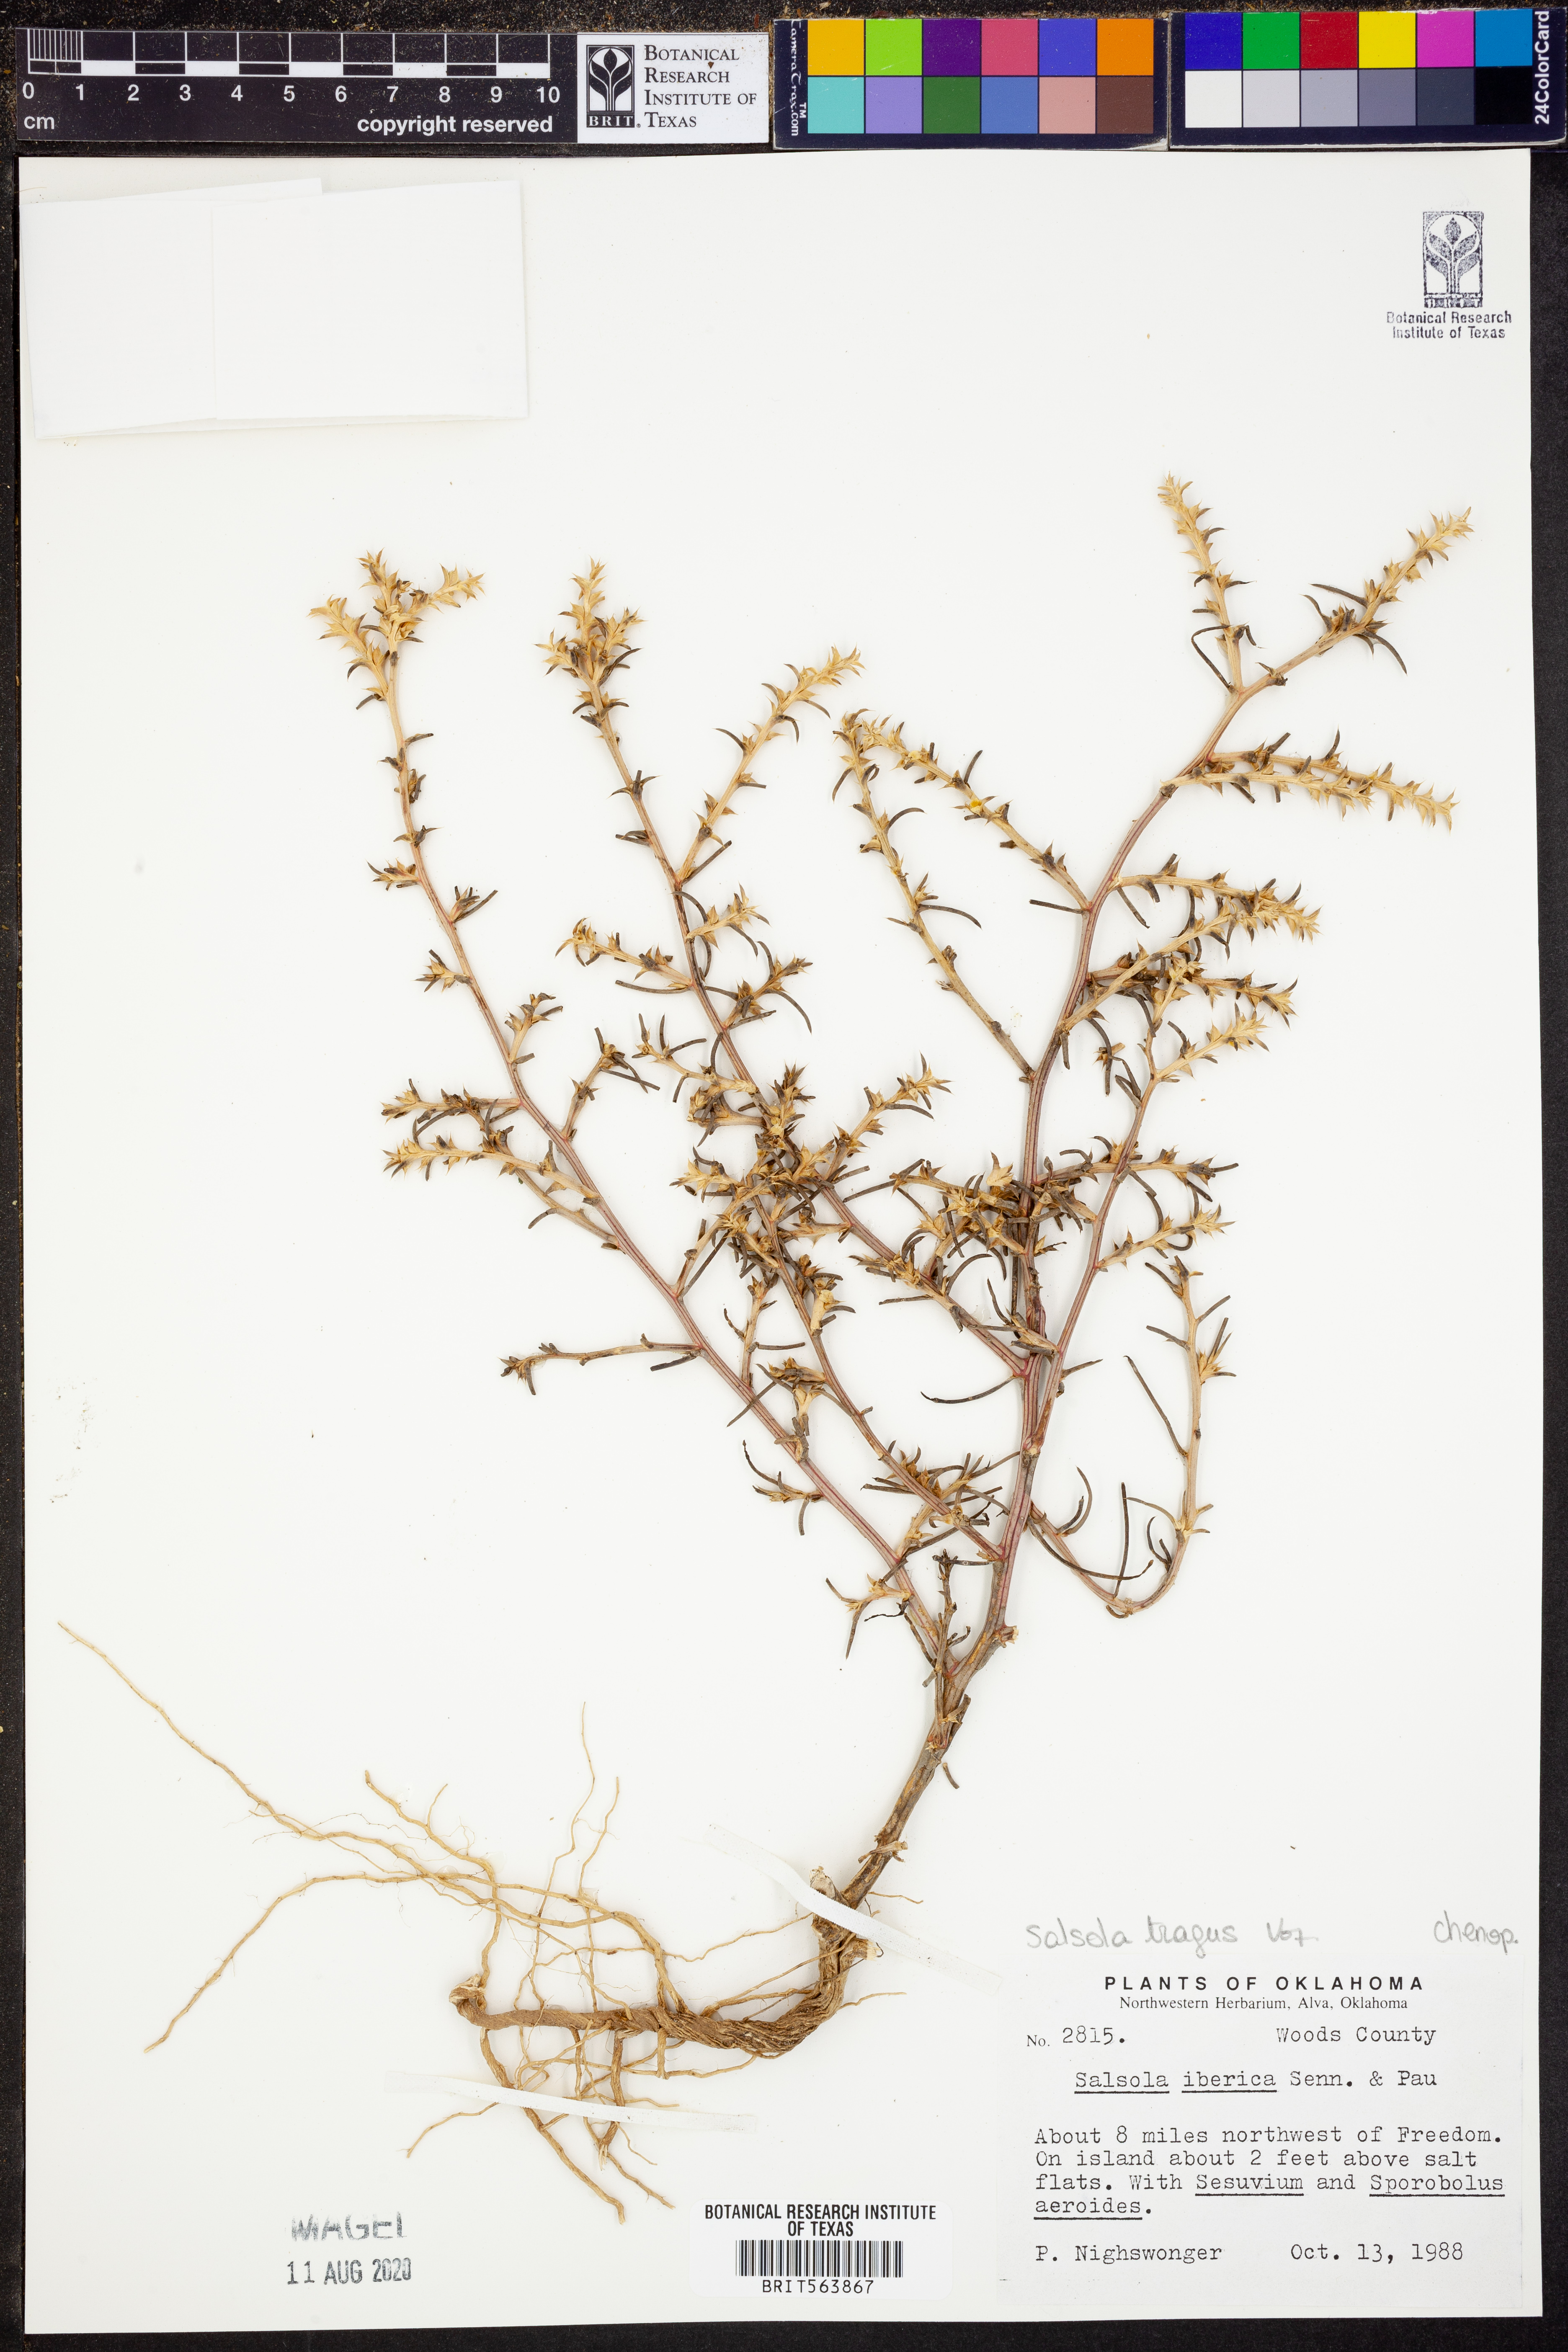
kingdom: Plantae
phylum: Tracheophyta
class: Magnoliopsida
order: Caryophyllales
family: Amaranthaceae
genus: Salsola
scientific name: Salsola tragus
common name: Prickly russian thistle
